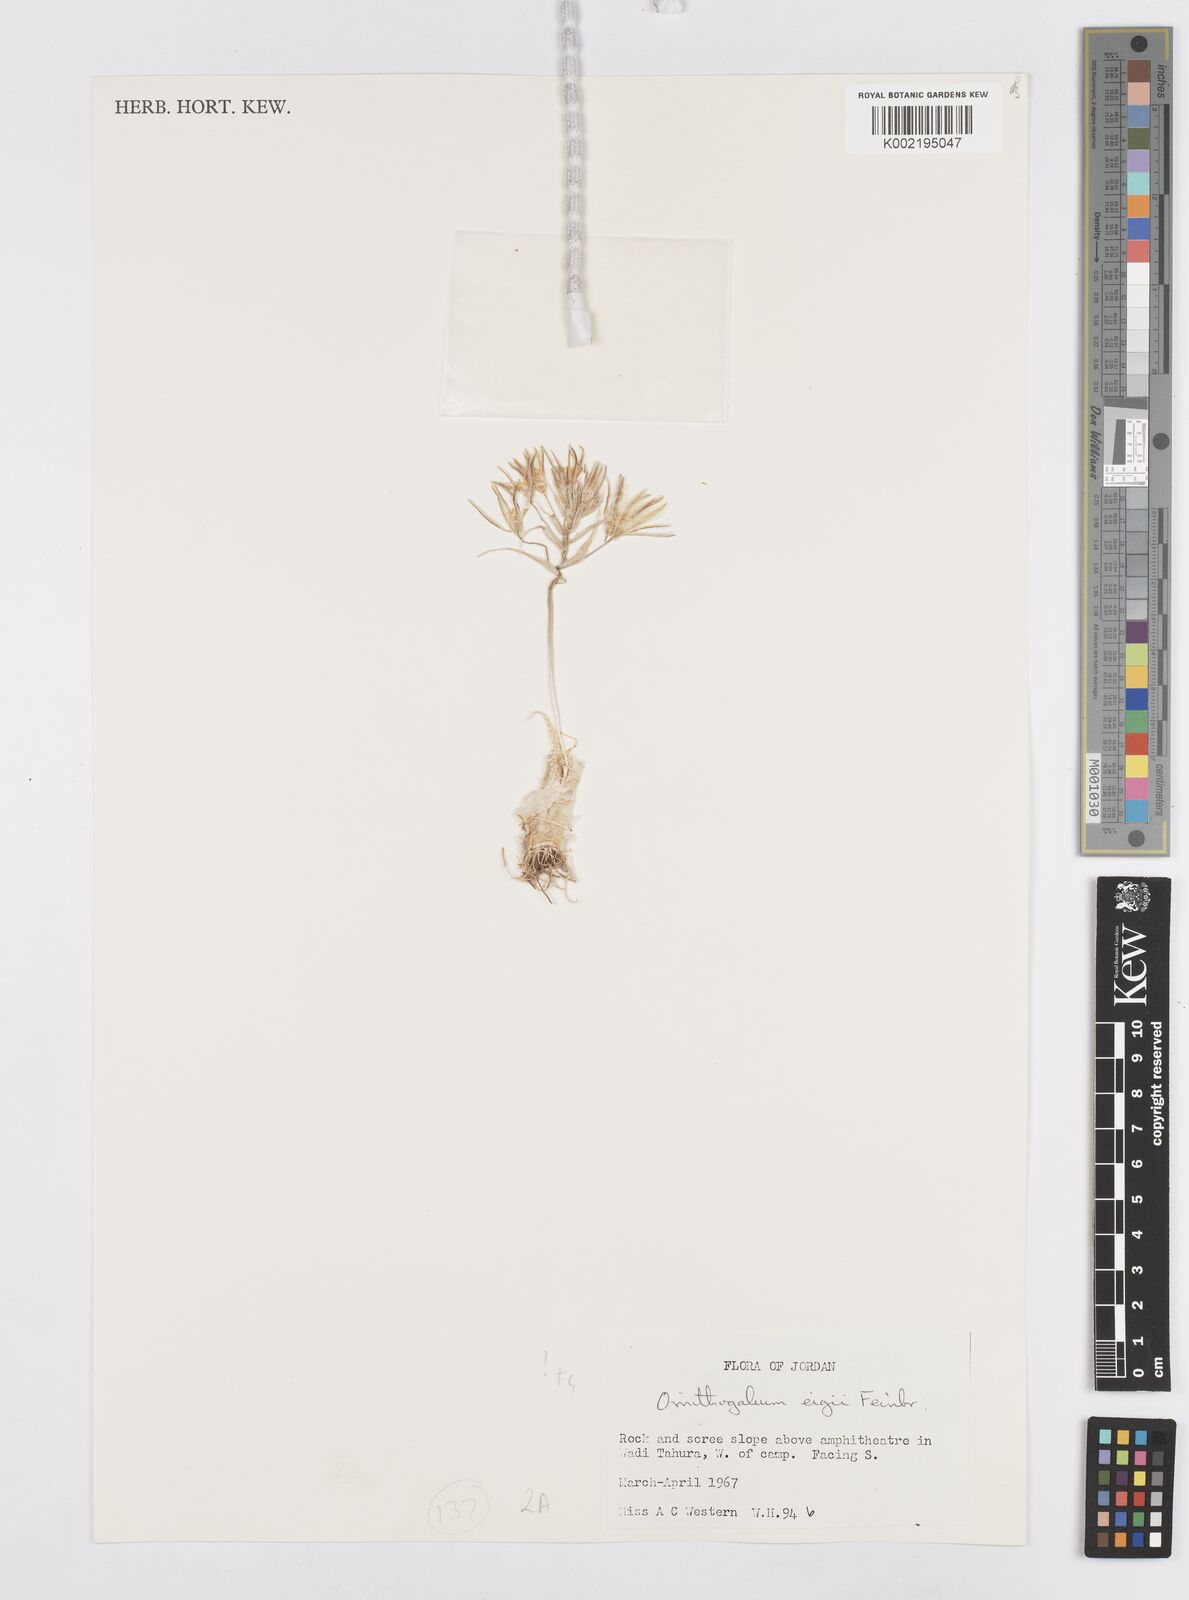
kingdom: Plantae
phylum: Tracheophyta
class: Liliopsida
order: Asparagales
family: Asparagaceae
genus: Ornithogalum
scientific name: Ornithogalum neurostegium
